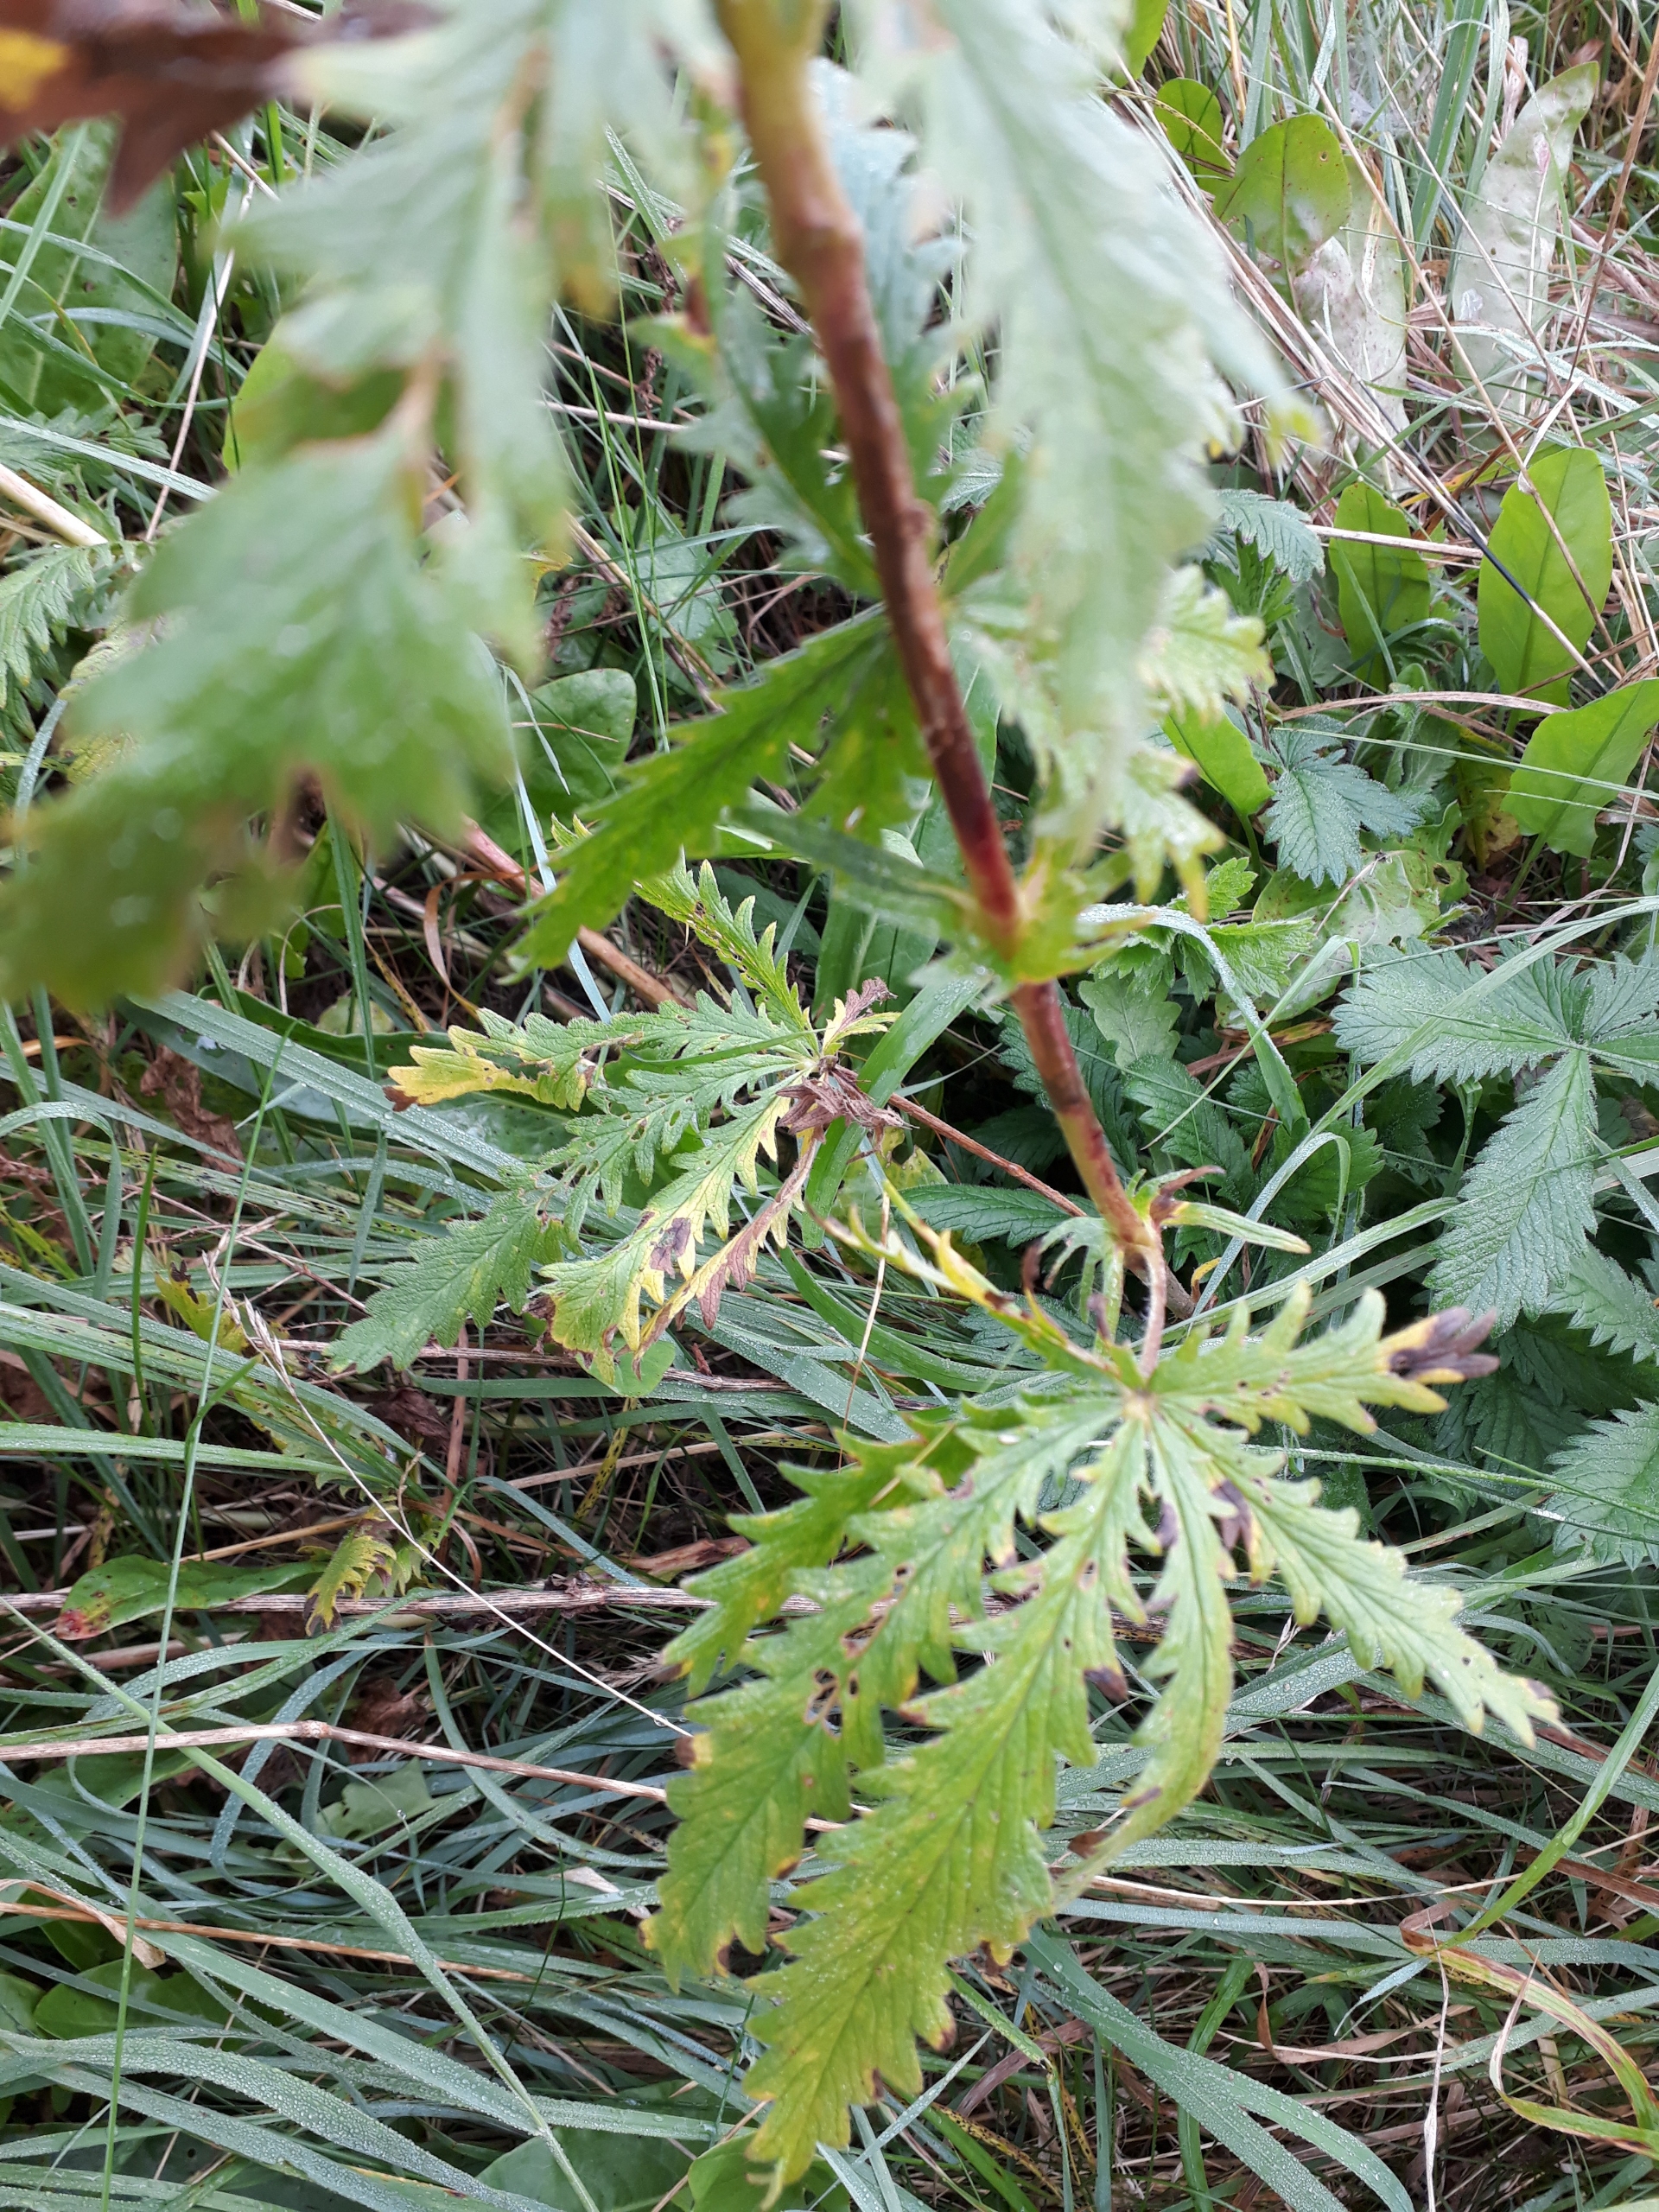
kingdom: Plantae
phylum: Tracheophyta
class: Magnoliopsida
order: Rosales
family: Rosaceae
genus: Potentilla
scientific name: Potentilla recta
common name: Rank potentil
